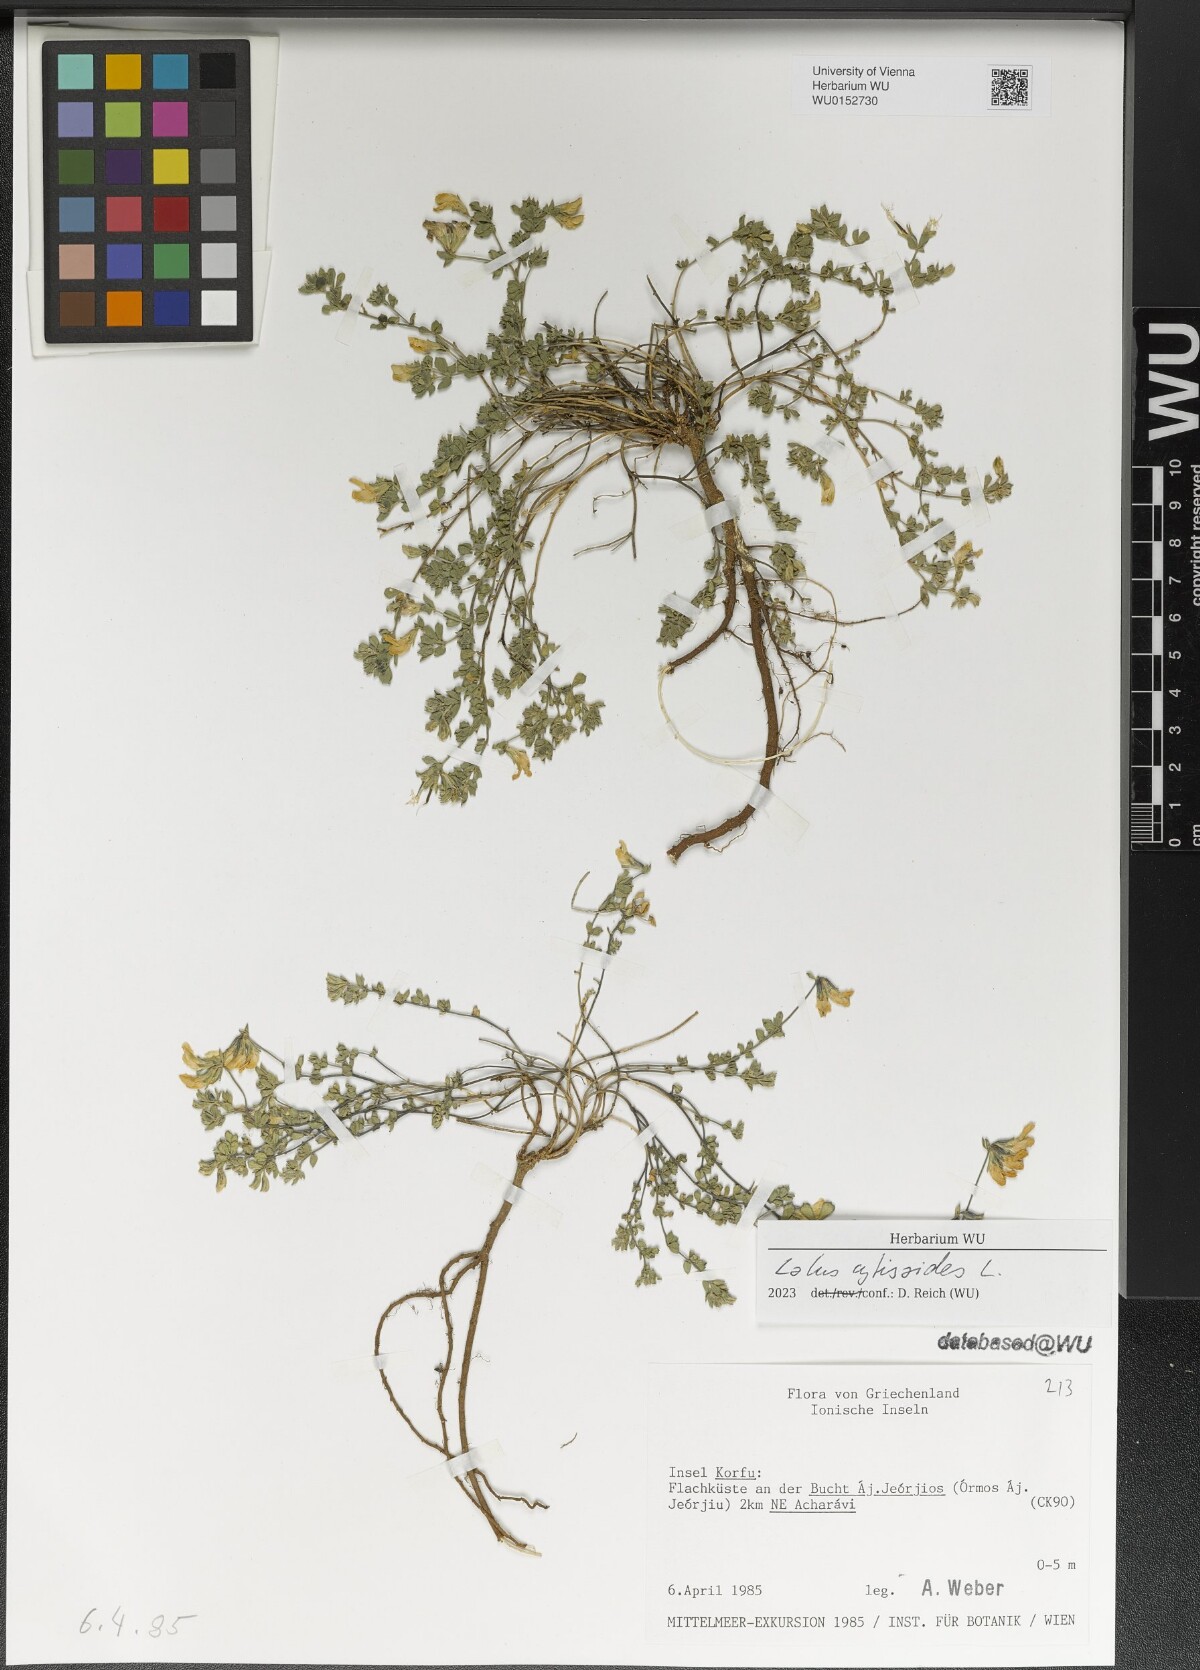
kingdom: Plantae
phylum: Tracheophyta
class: Magnoliopsida
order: Fabales
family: Fabaceae
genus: Lotus
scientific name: Lotus cytisoides
